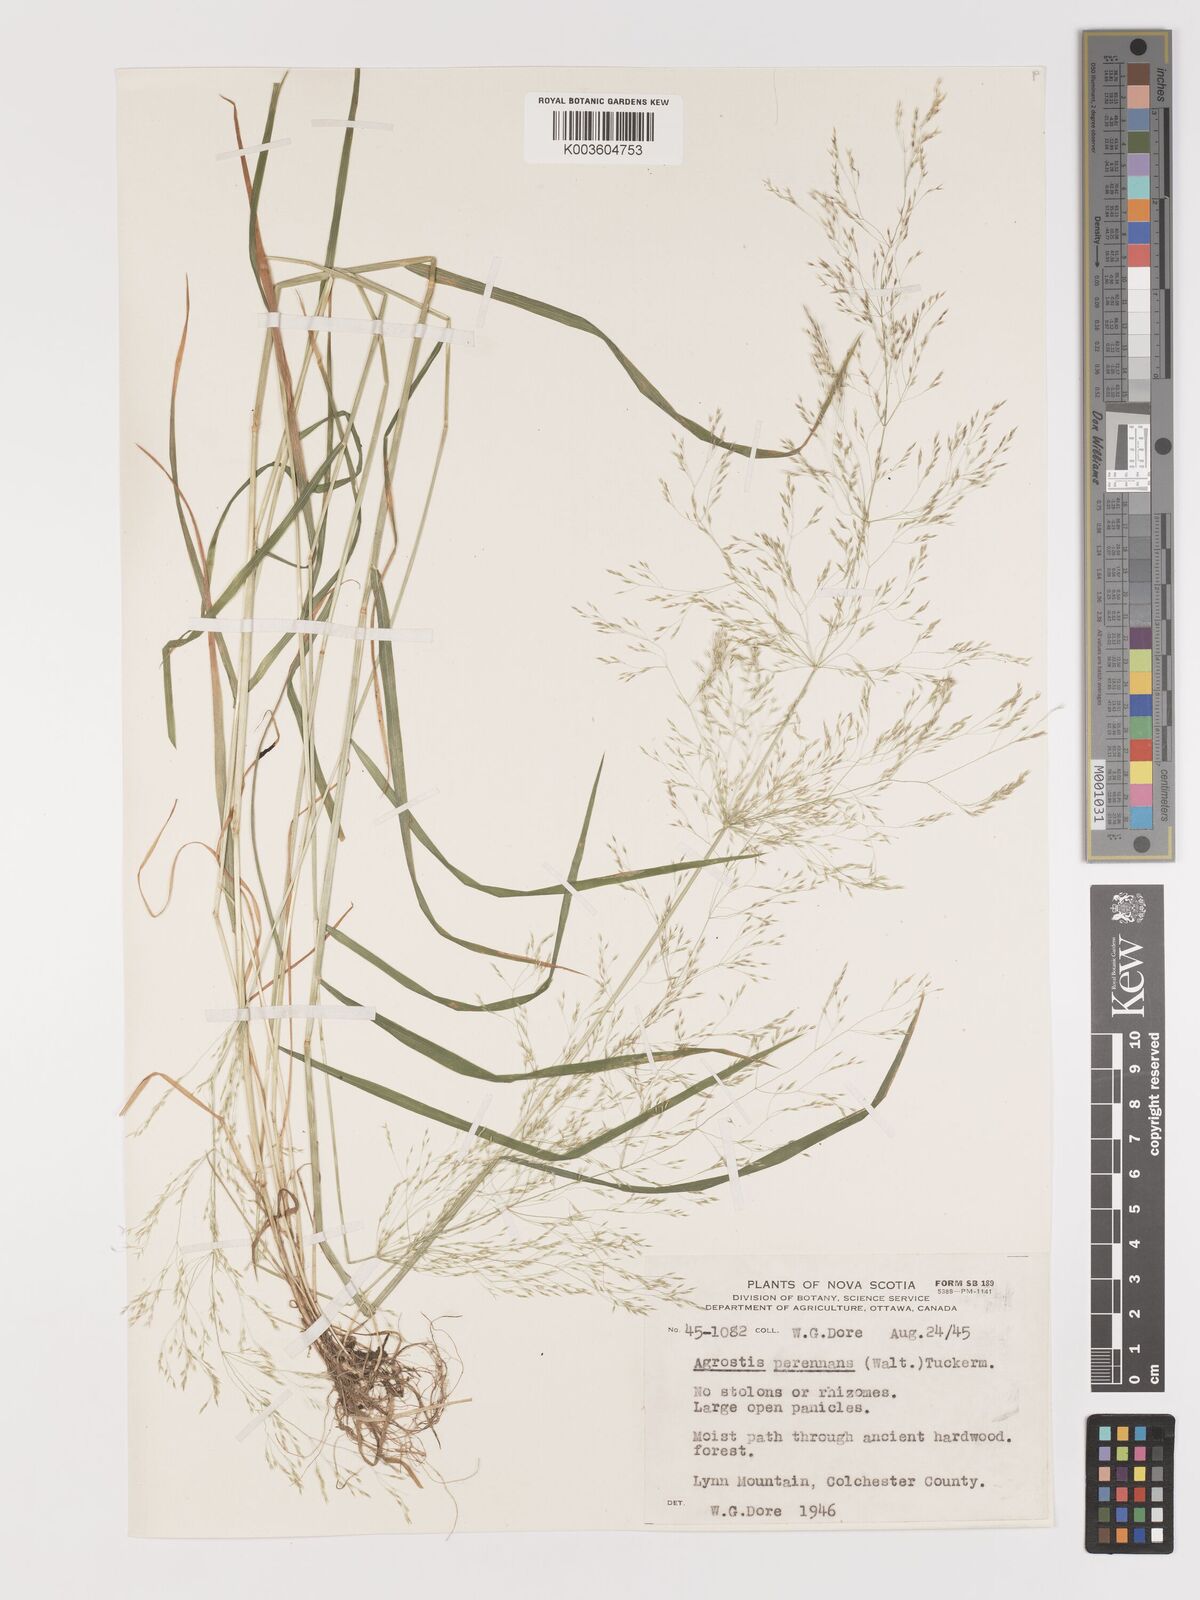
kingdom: Plantae
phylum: Tracheophyta
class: Liliopsida
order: Poales
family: Poaceae
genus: Agrostis
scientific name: Agrostis perennans
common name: Autumn bent
